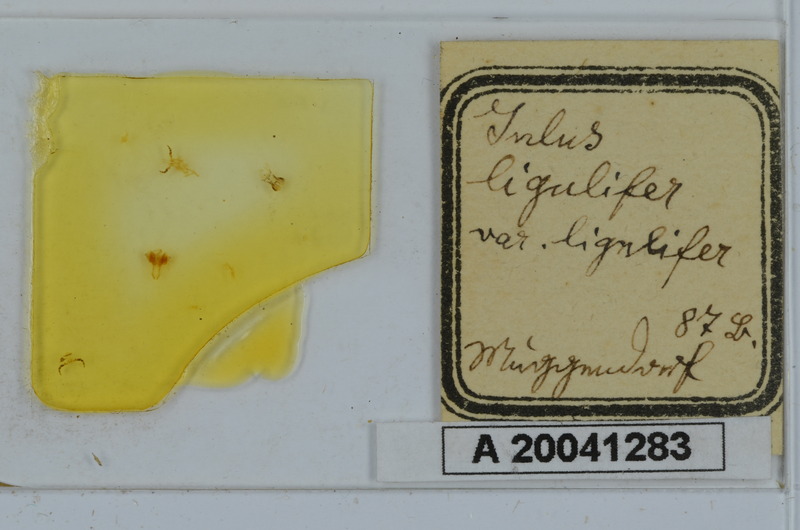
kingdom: Animalia
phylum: Arthropoda
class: Diplopoda
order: Julida
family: Julidae
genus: Julus
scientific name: Julus scandinavius
